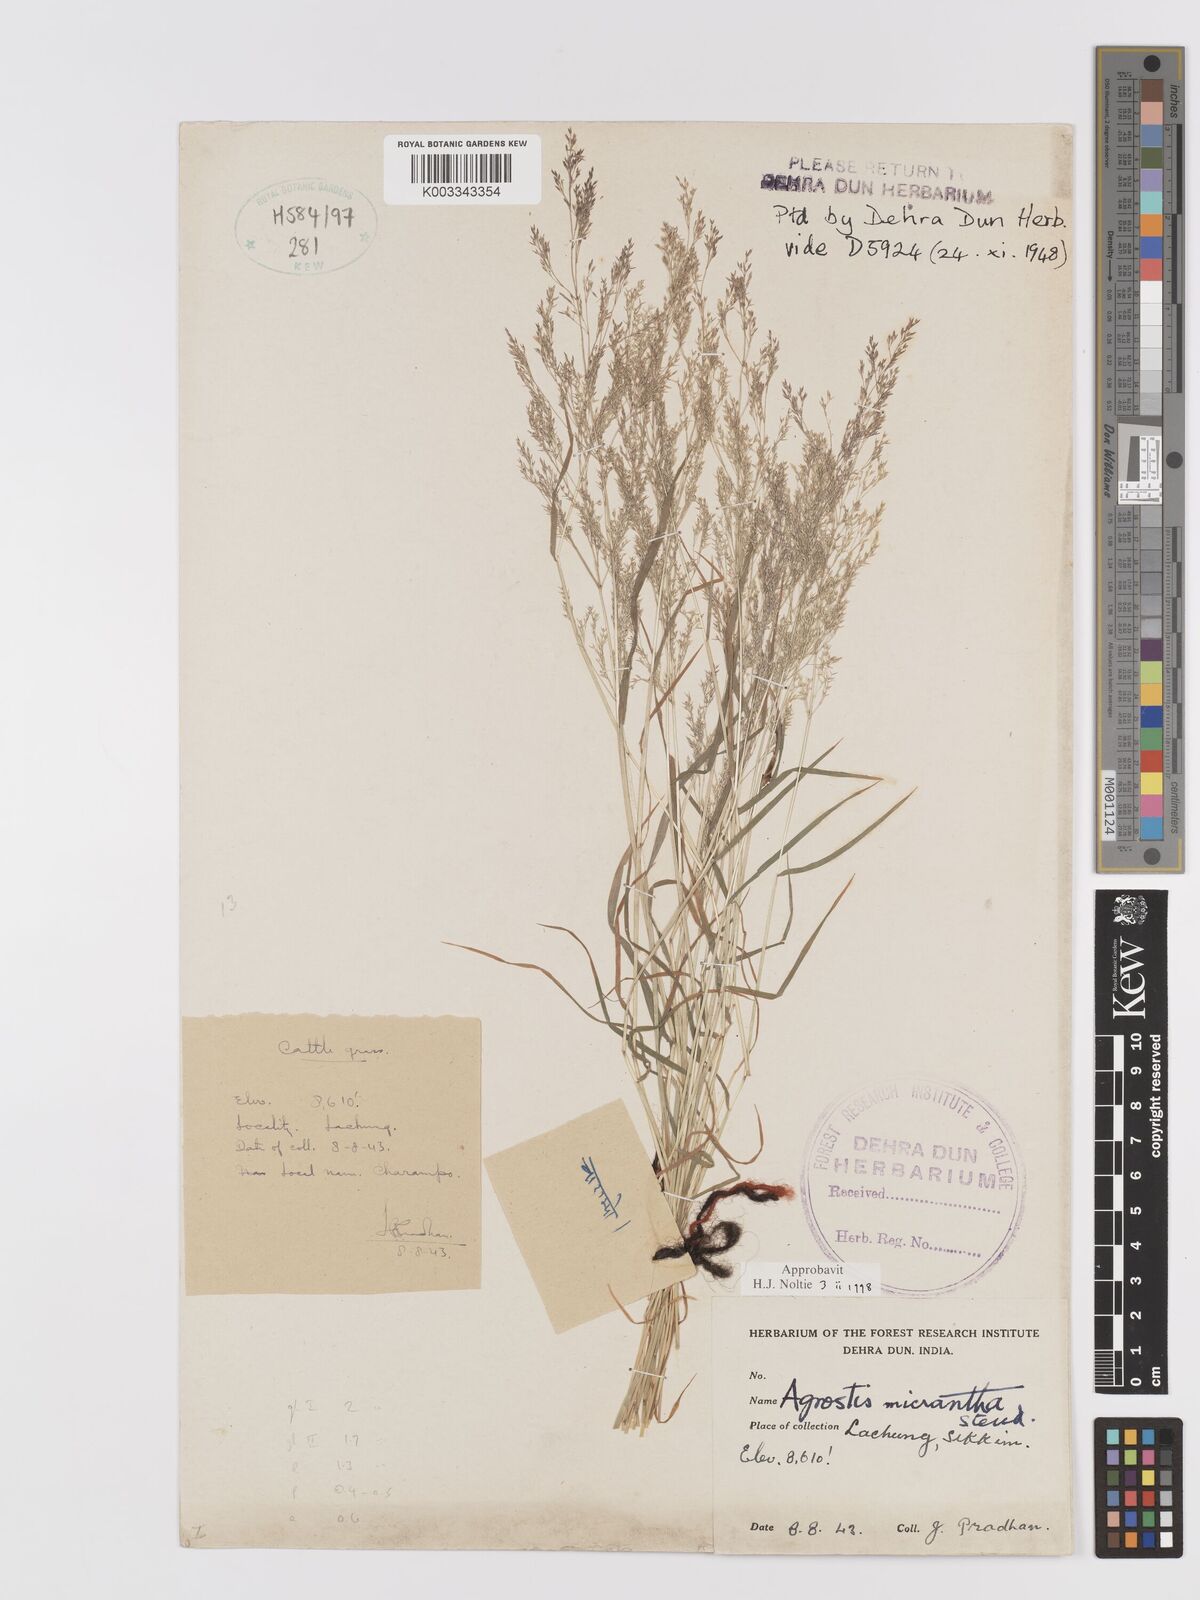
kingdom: Plantae
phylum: Tracheophyta
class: Liliopsida
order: Poales
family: Poaceae
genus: Agrostis
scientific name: Agrostis micrantha
